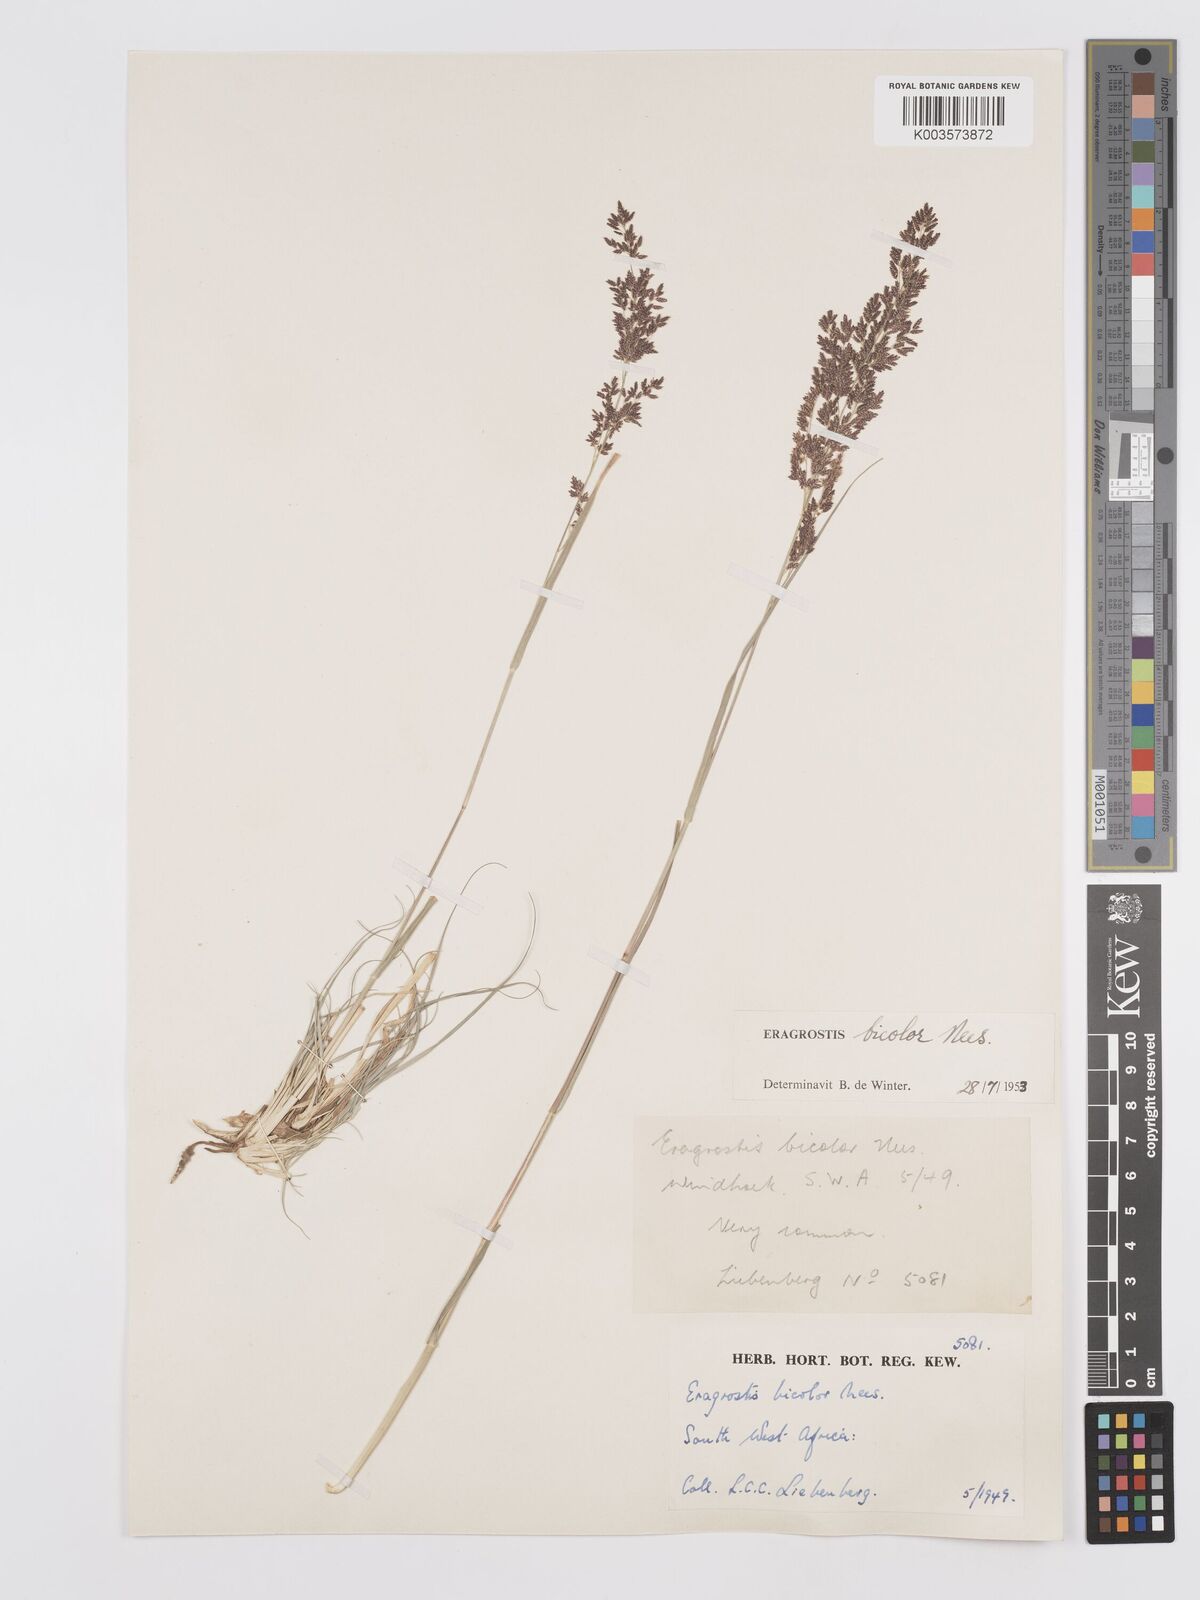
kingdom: Plantae
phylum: Tracheophyta
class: Liliopsida
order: Poales
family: Poaceae
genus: Eragrostis
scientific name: Eragrostis
